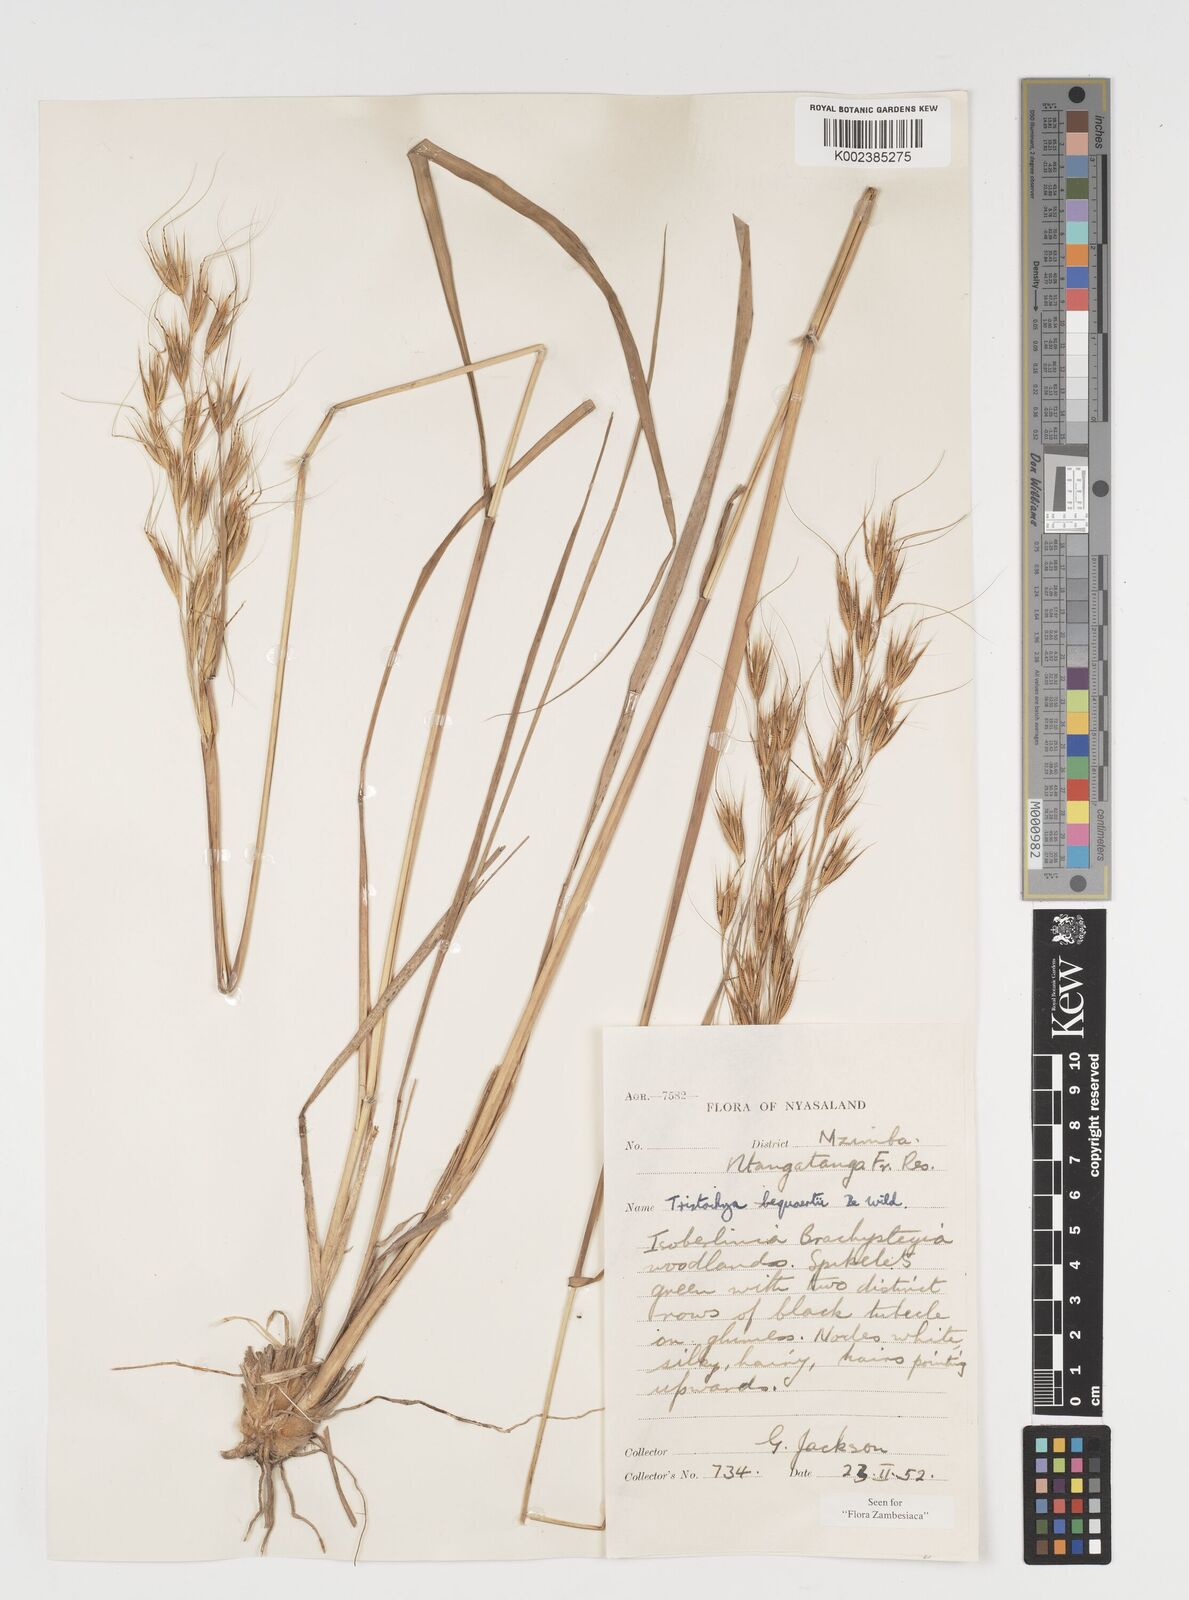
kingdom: Plantae
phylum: Tracheophyta
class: Liliopsida
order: Poales
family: Poaceae
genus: Tristachya
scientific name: Tristachya bequaertii
